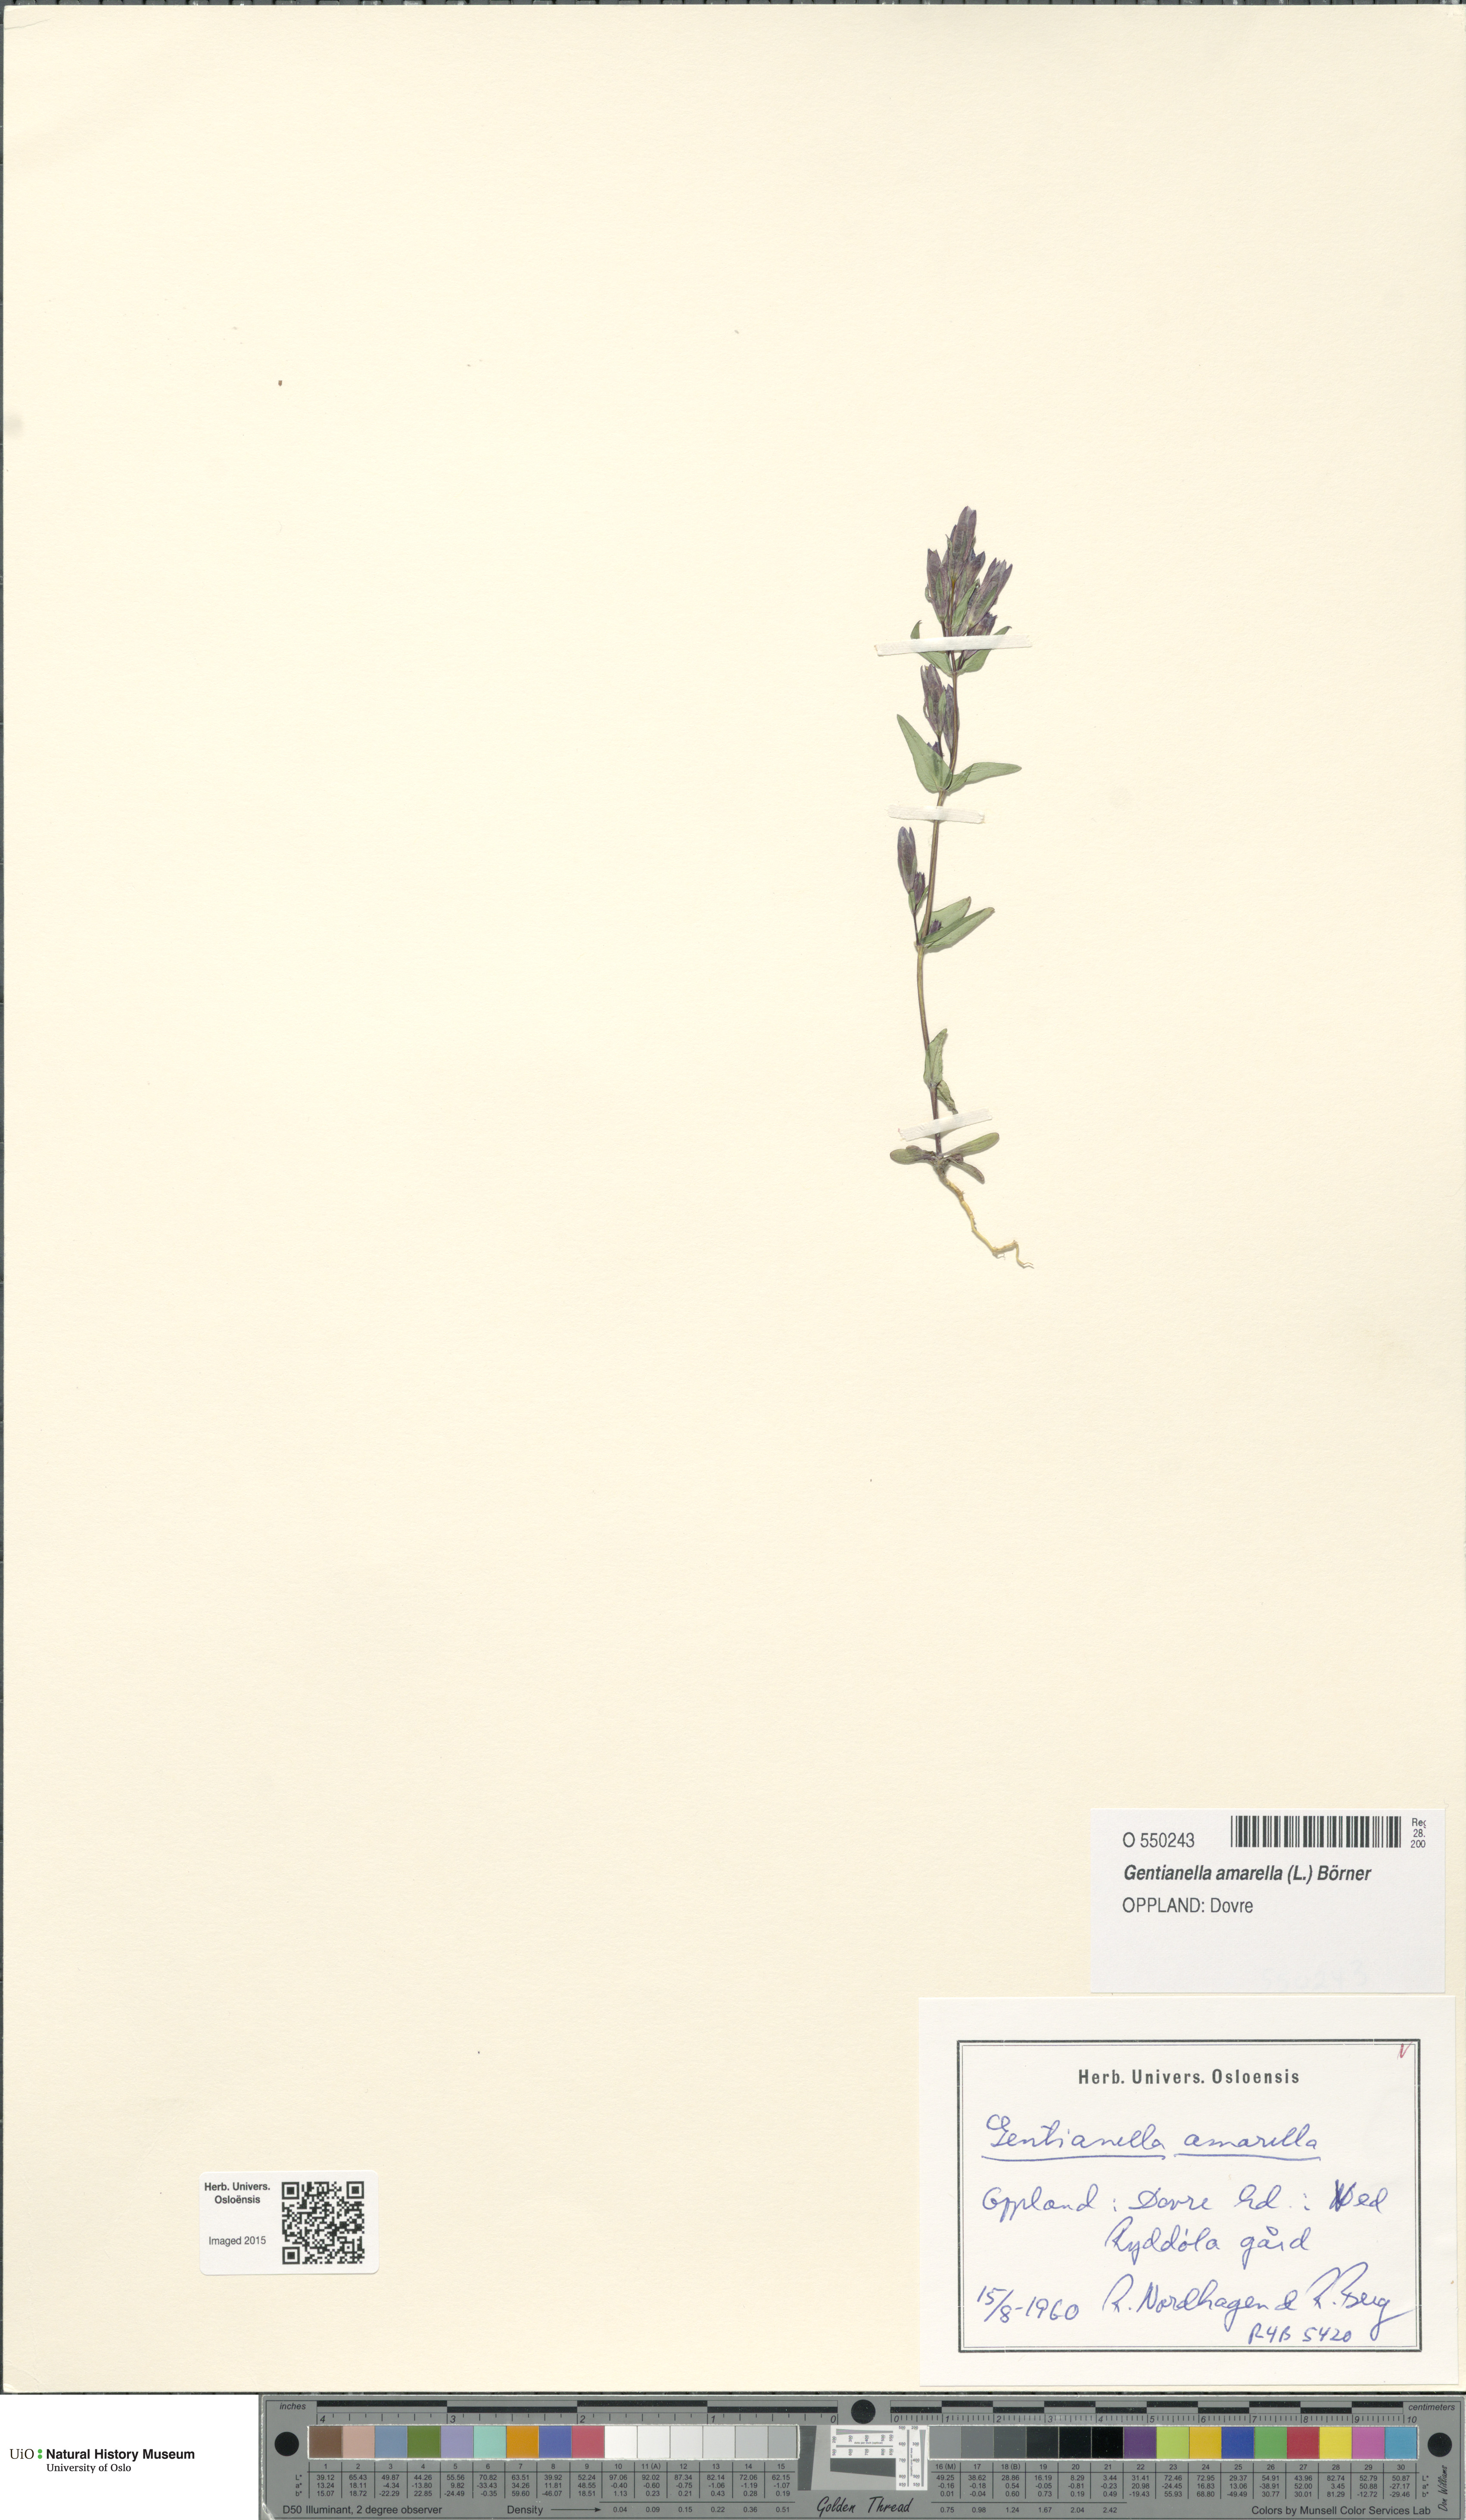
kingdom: Plantae
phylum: Tracheophyta
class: Magnoliopsida
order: Gentianales
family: Gentianaceae
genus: Gentianella
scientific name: Gentianella amarella
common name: Autumn gentian
